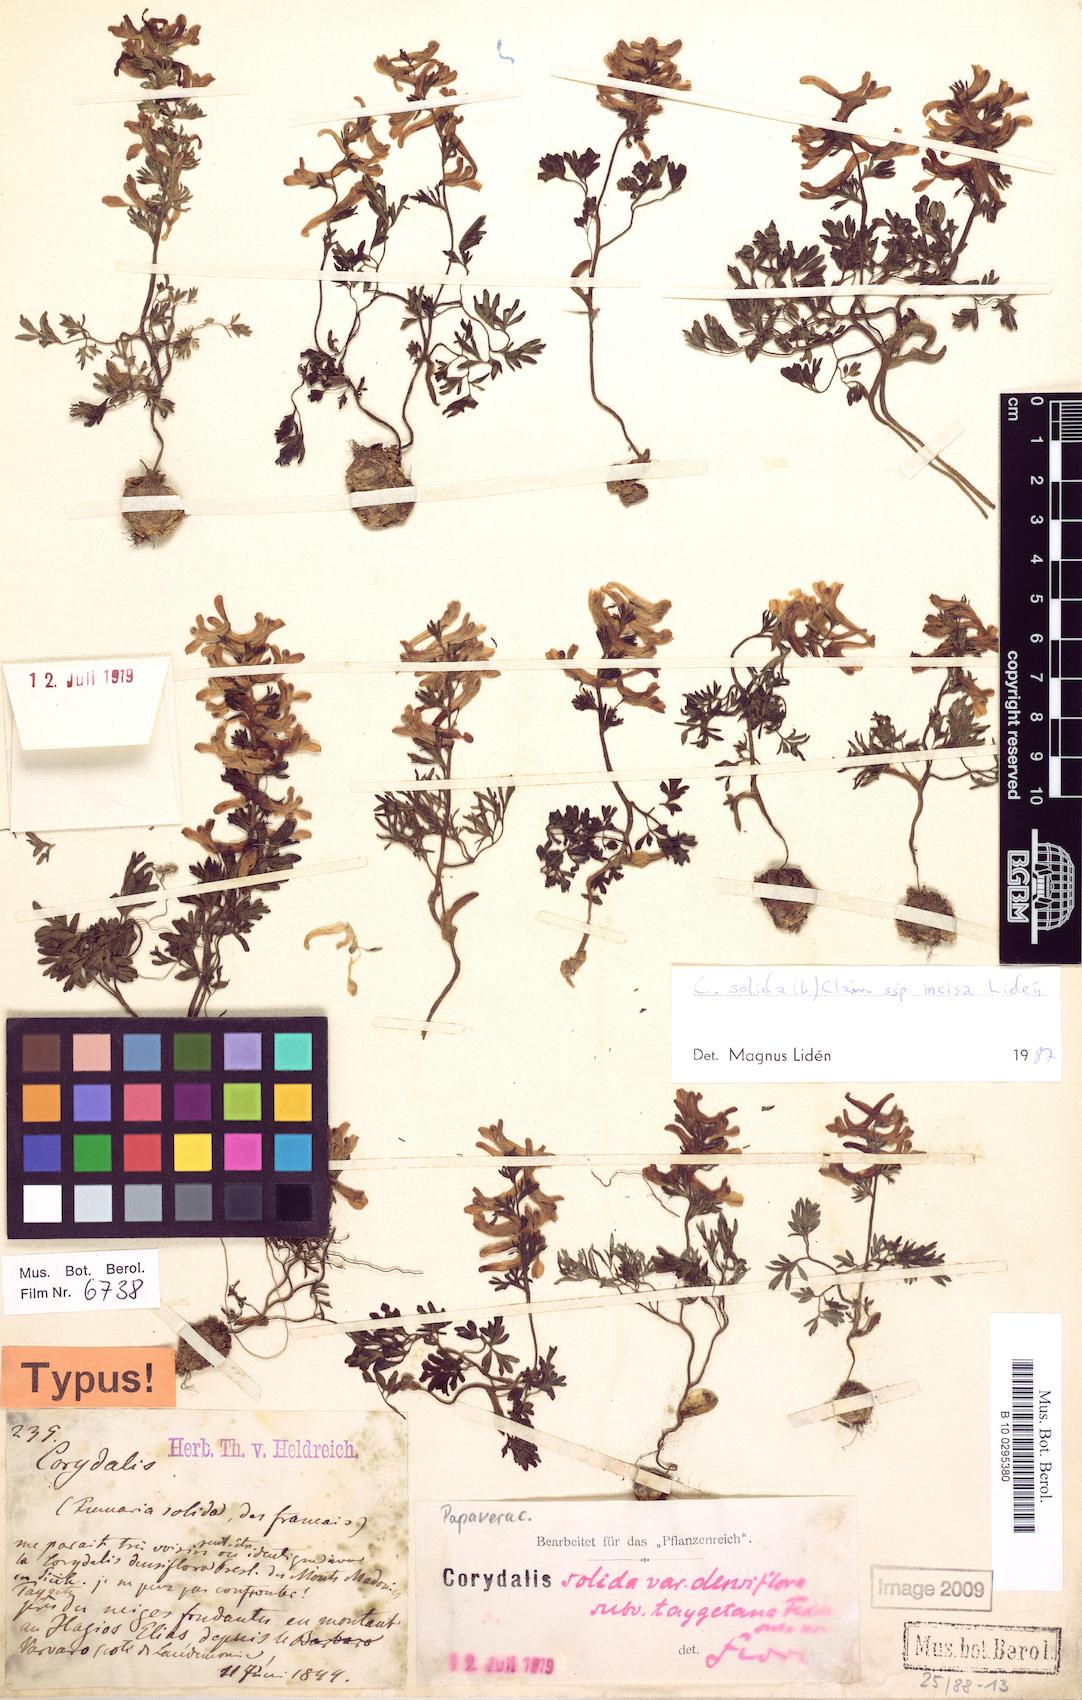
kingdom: Plantae
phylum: Tracheophyta
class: Magnoliopsida
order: Ranunculales
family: Papaveraceae
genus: Corydalis
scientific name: Corydalis solida
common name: Bird-in-a-bush
